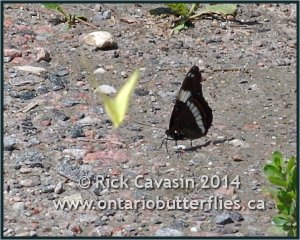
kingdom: Animalia
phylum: Arthropoda
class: Insecta
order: Lepidoptera
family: Nymphalidae
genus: Limenitis
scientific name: Limenitis arthemis
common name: Red-spotted Admiral
